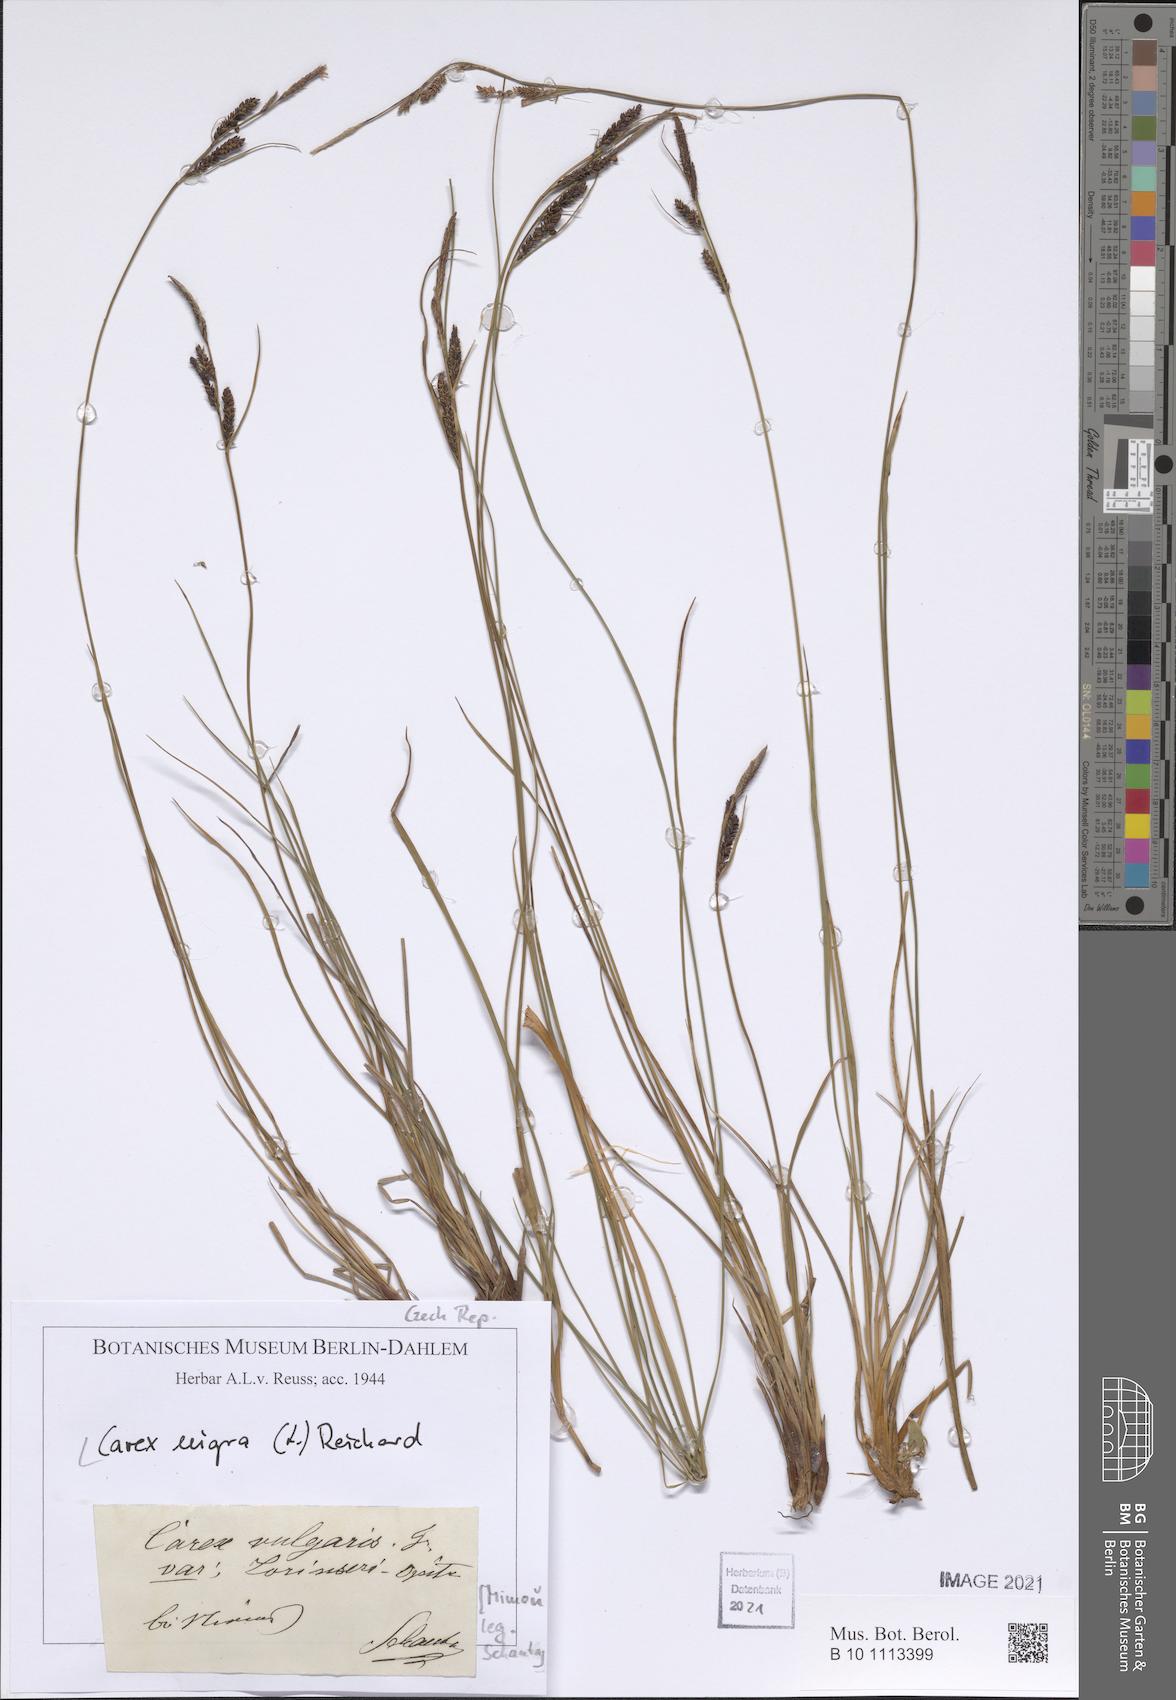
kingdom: Plantae
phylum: Tracheophyta
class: Liliopsida
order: Poales
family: Cyperaceae
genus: Carex
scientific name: Carex nigra
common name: Common sedge
